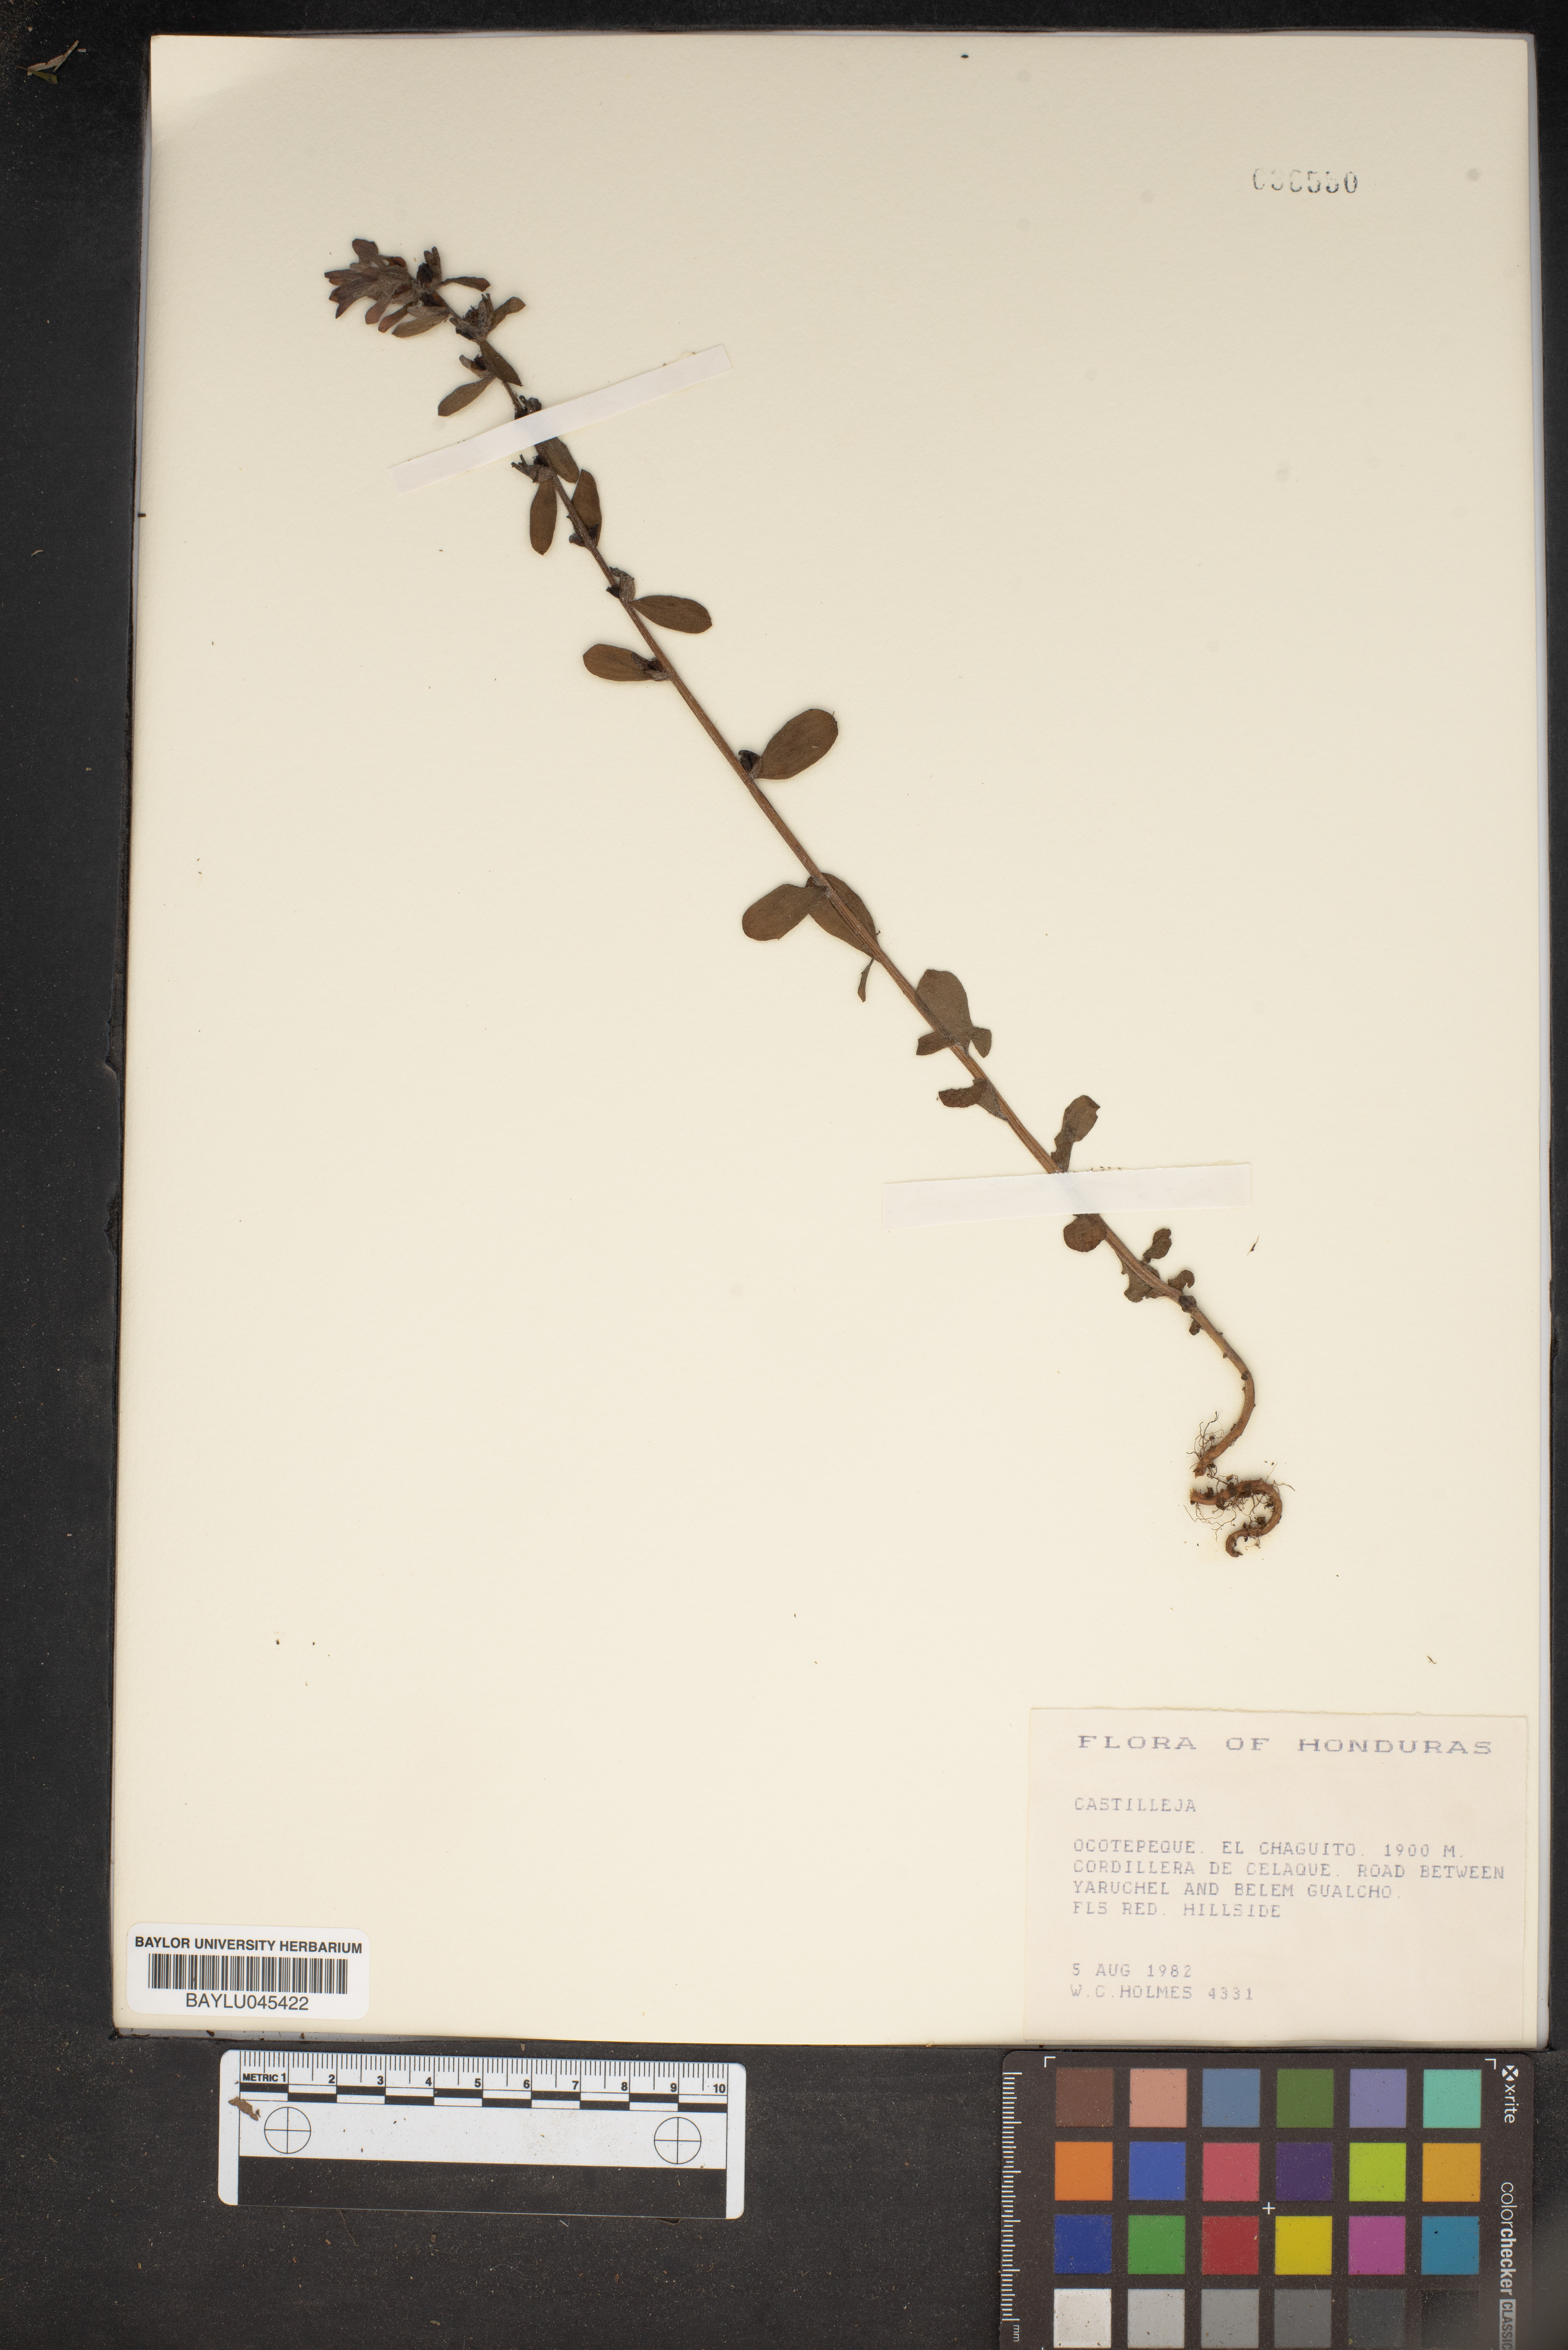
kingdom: Plantae
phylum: Tracheophyta
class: Magnoliopsida
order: Lamiales
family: Orobanchaceae
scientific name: Orobanchaceae
